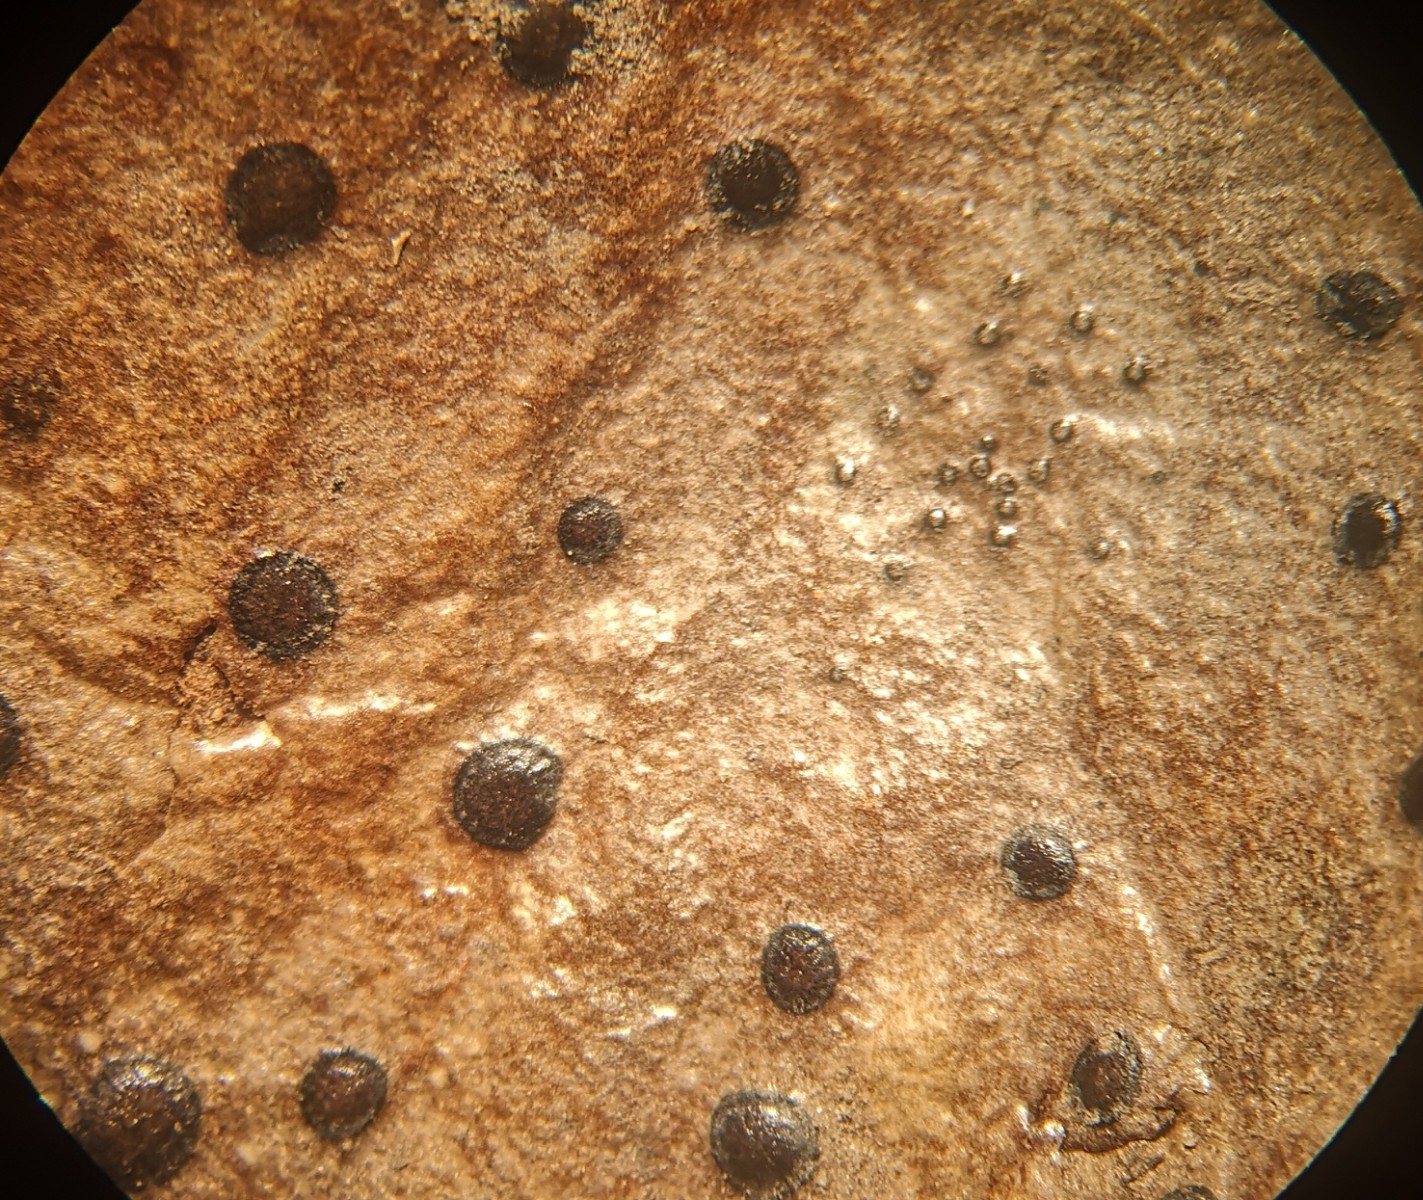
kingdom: Fungi
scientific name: Fungi
